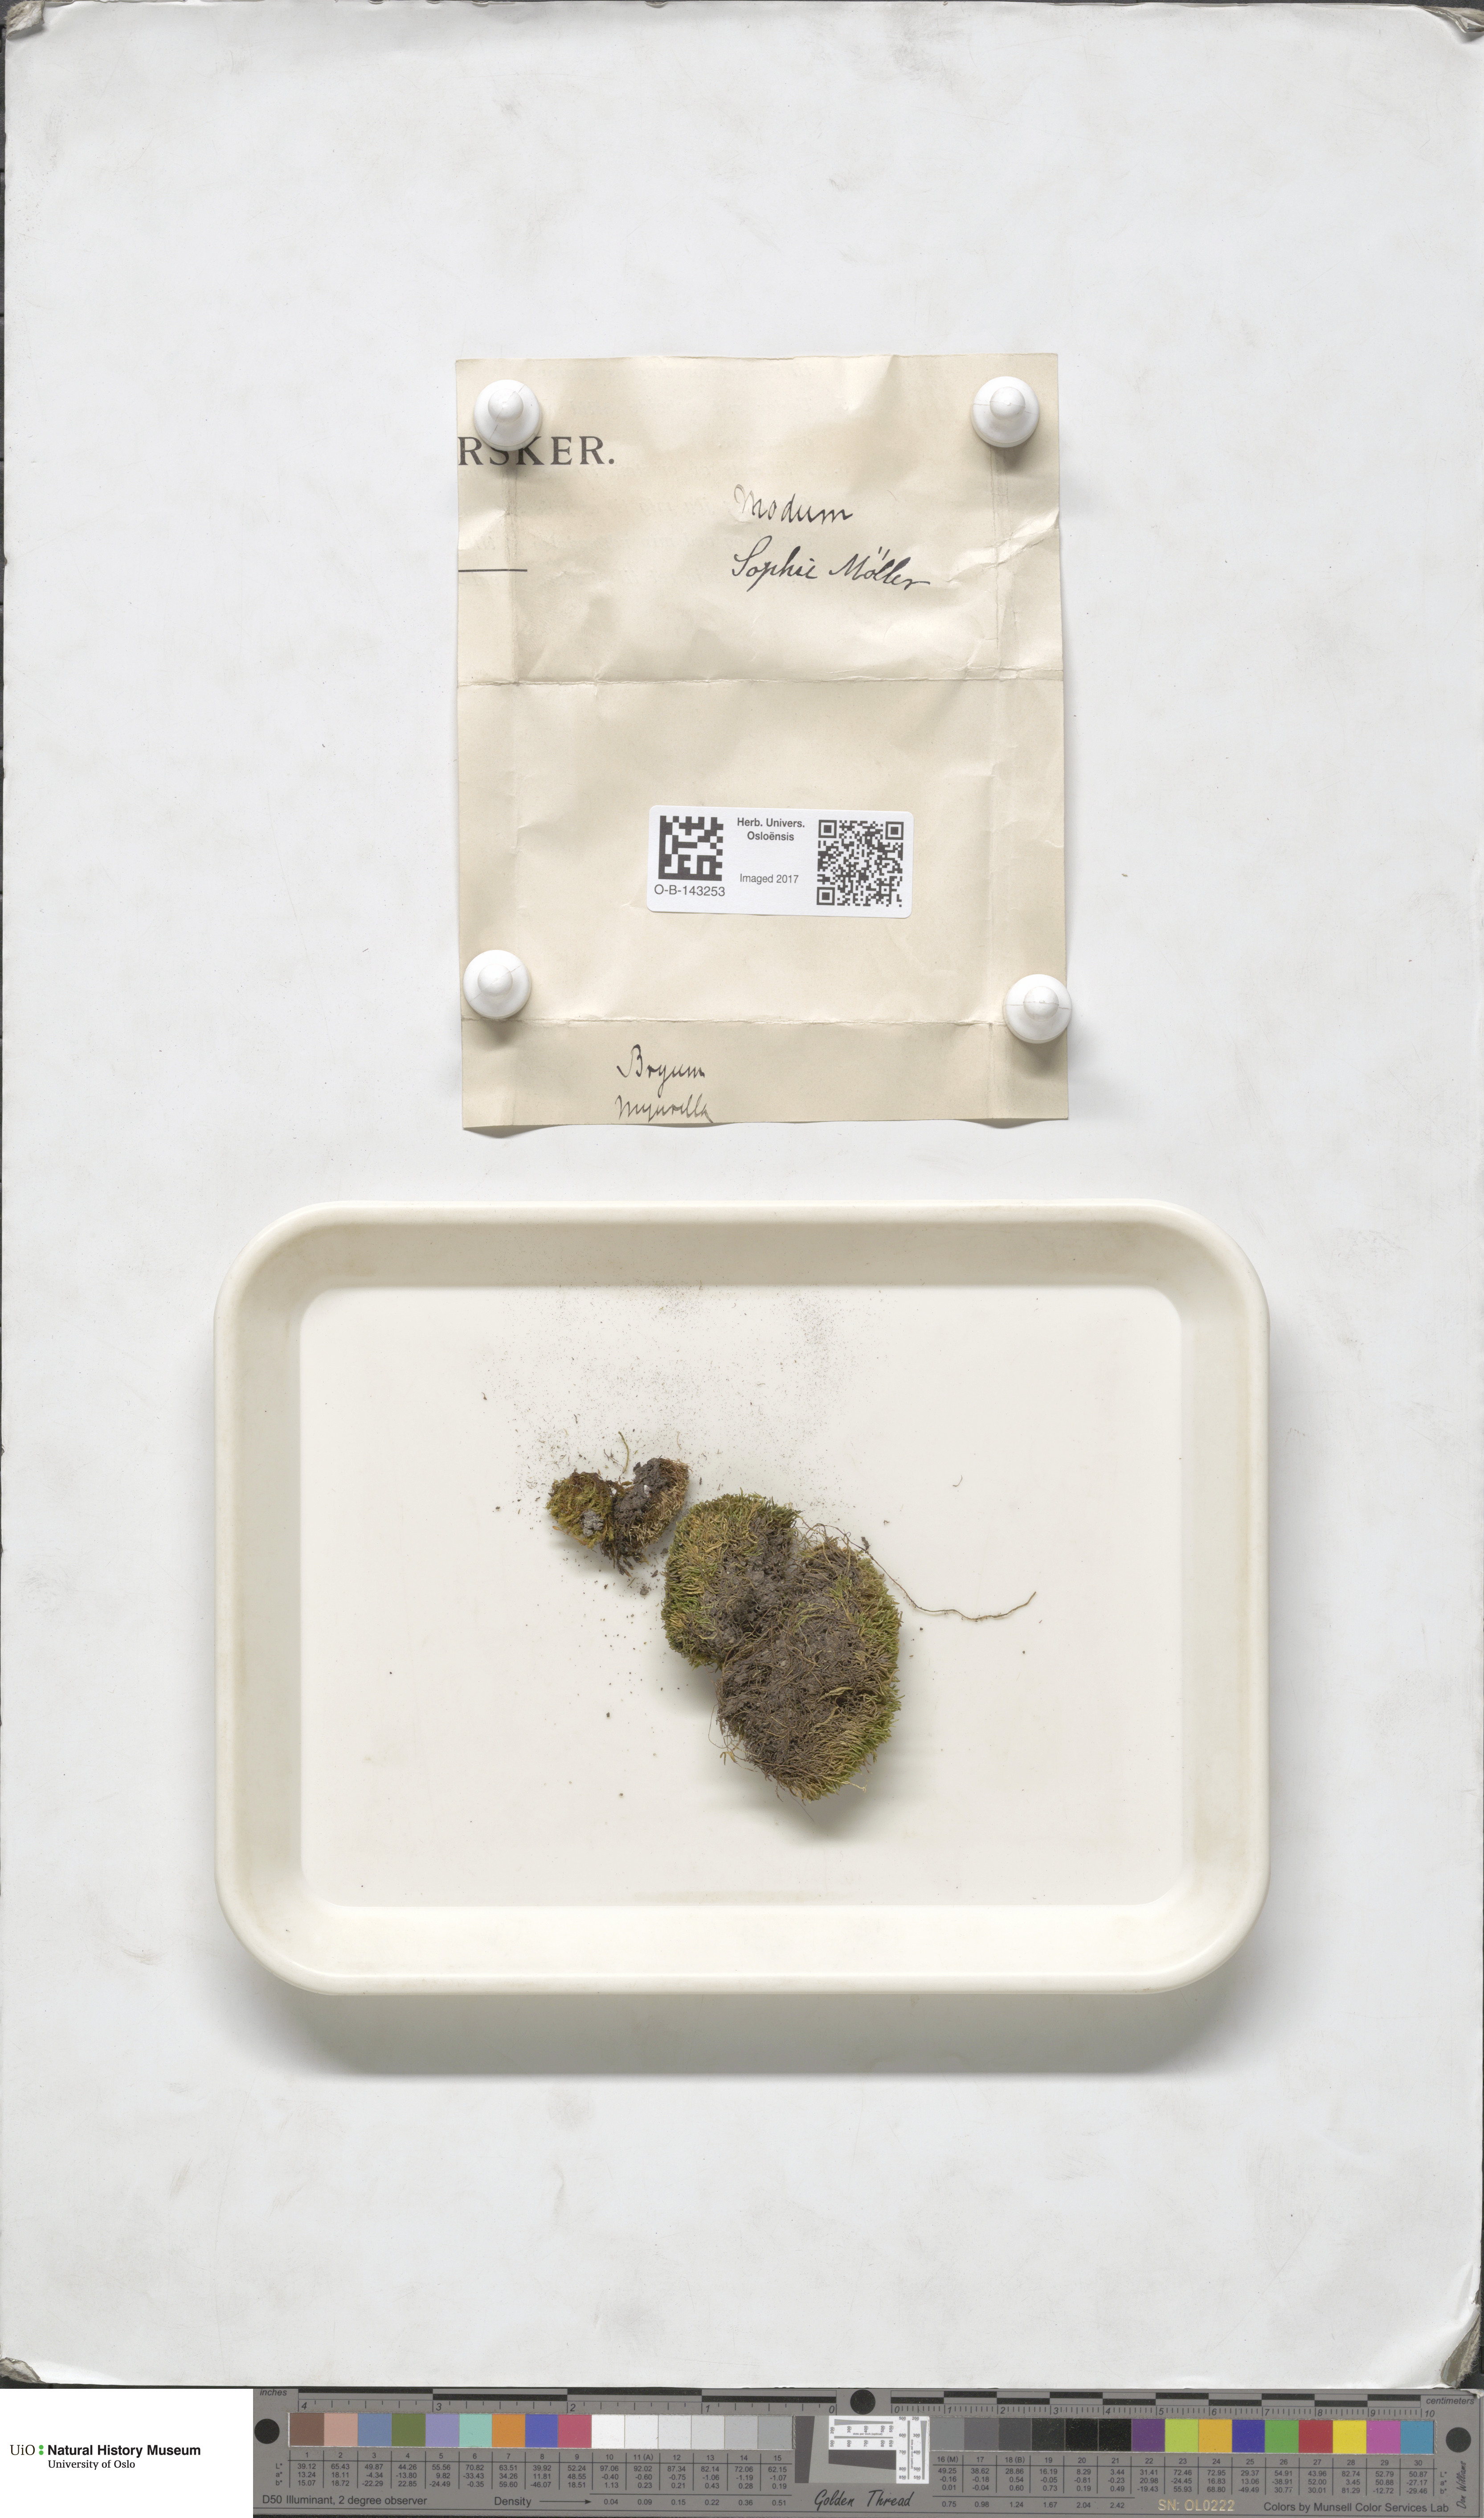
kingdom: Plantae
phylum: Bryophyta
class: Bryopsida
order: Bryales
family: Bryaceae
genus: Bryum
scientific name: Bryum
